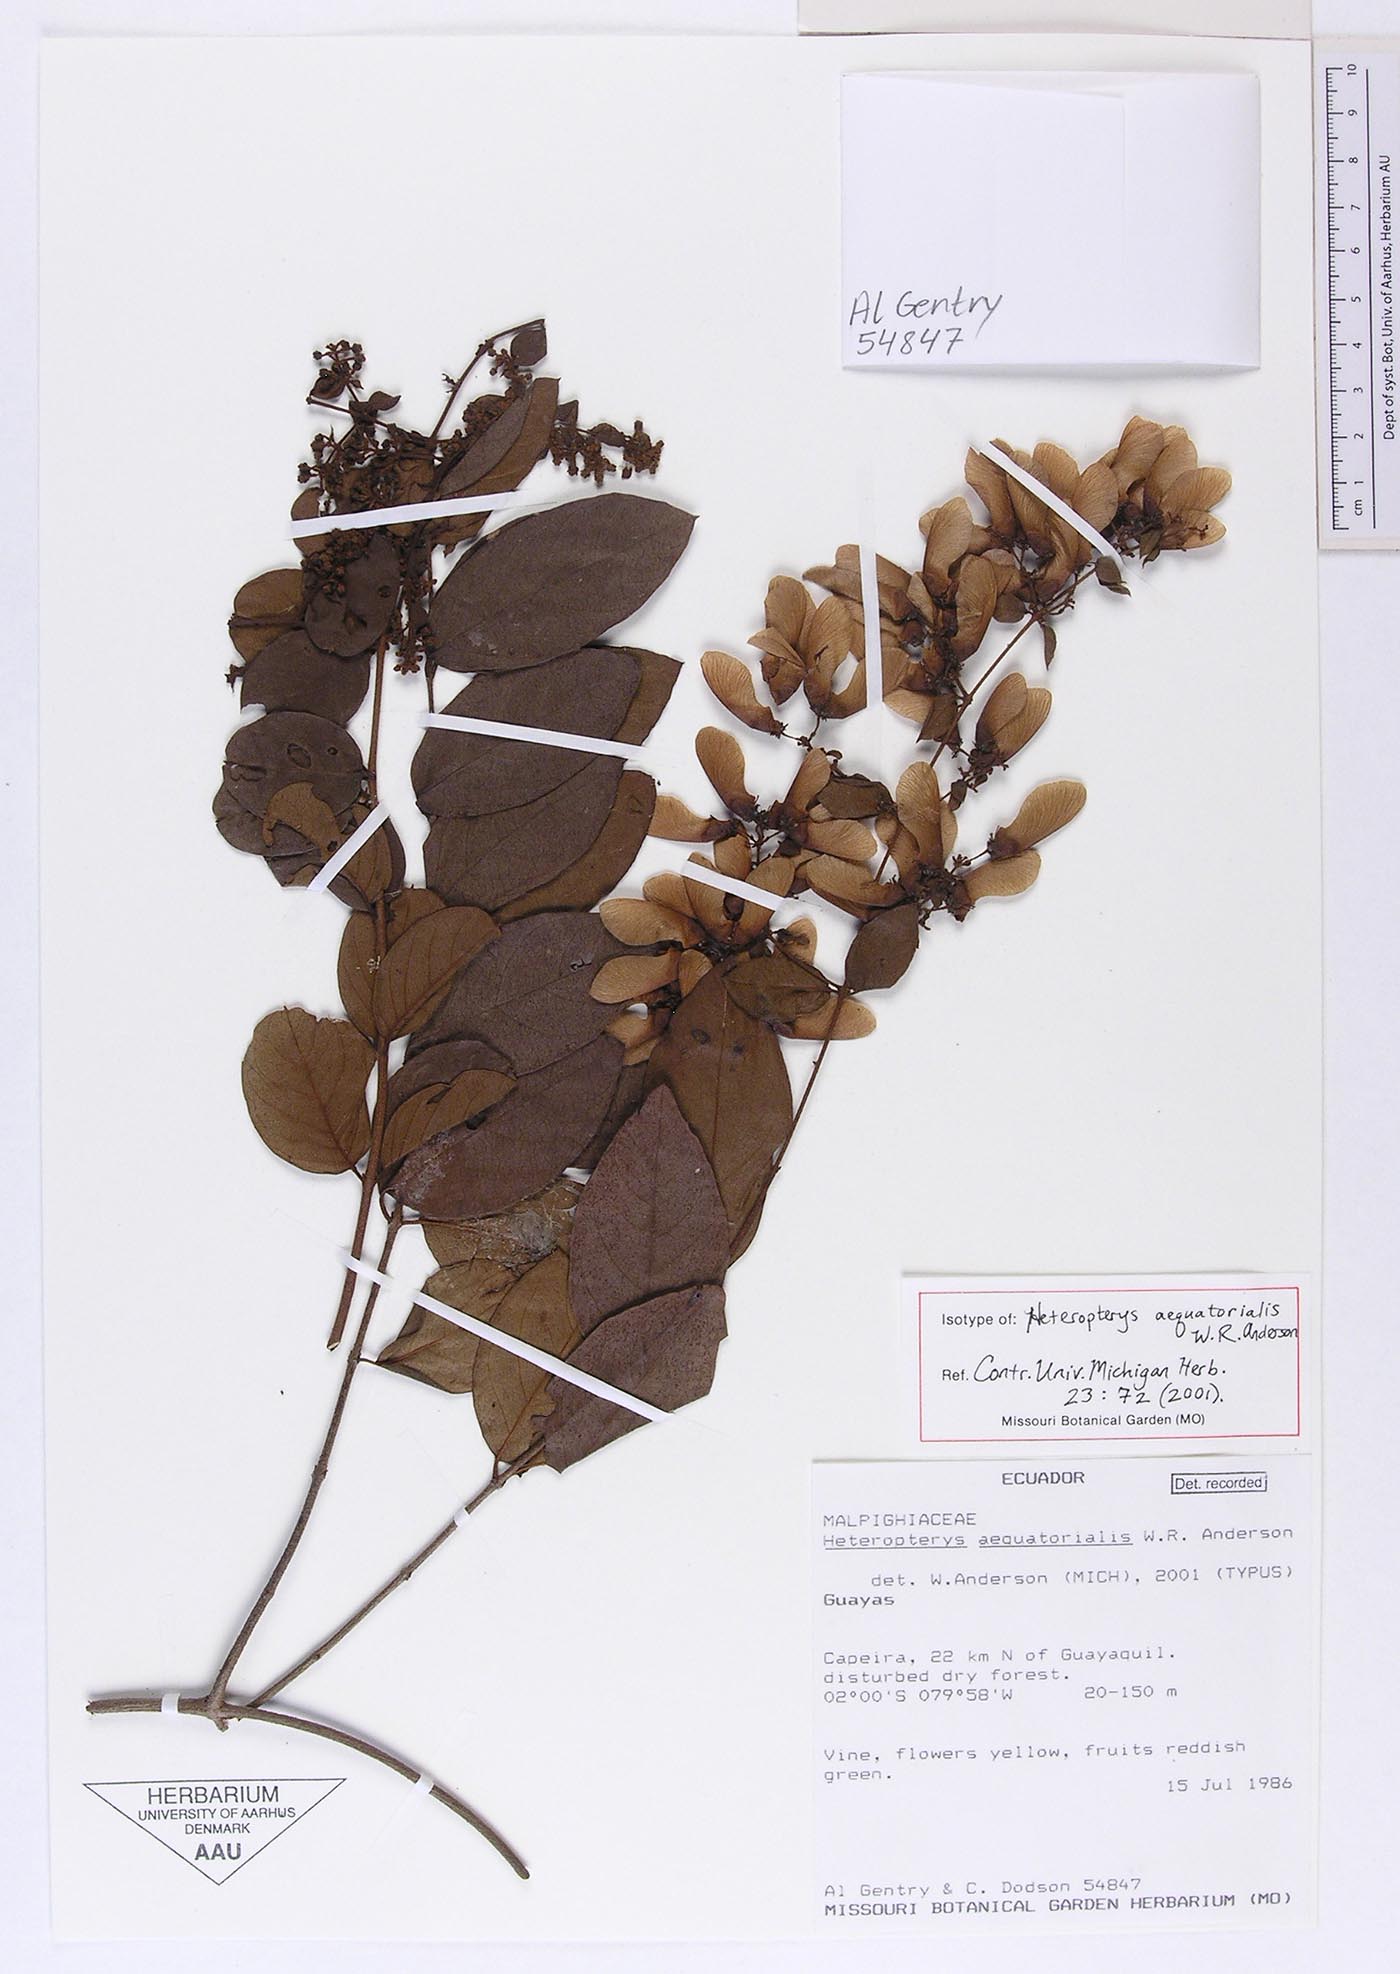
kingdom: Plantae
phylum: Tracheophyta
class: Magnoliopsida
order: Malpighiales
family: Malpighiaceae
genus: Heteropterys
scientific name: Heteropterys aequatorialis
